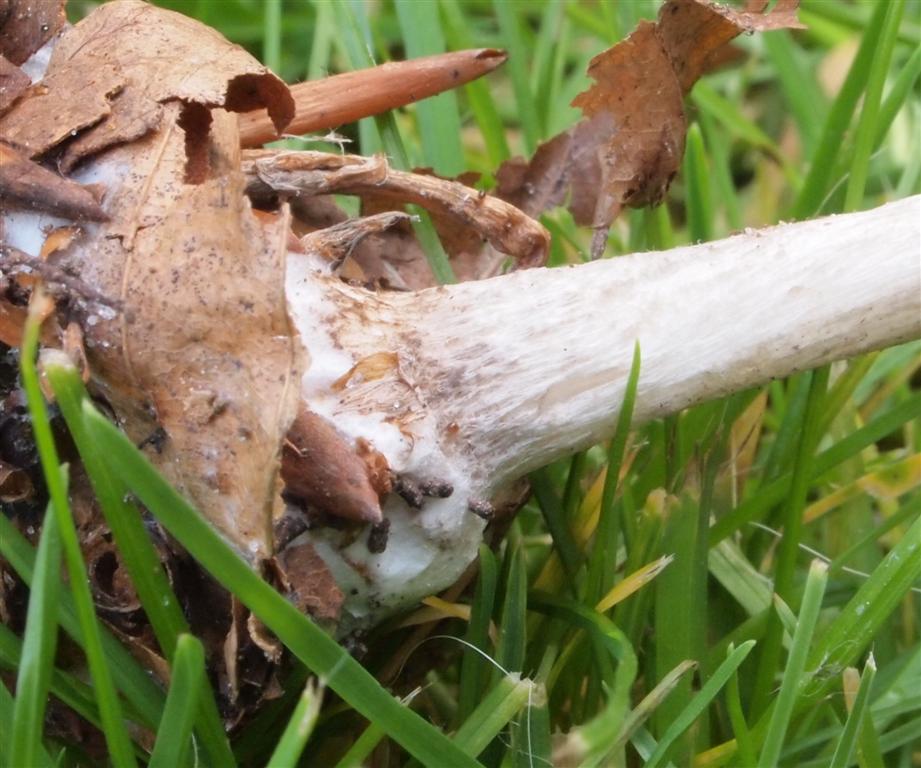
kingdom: Fungi
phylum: Basidiomycota
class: Agaricomycetes
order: Agaricales
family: Pluteaceae
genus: Pluteus
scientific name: Pluteus salicinus
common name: stiv skærmhat
